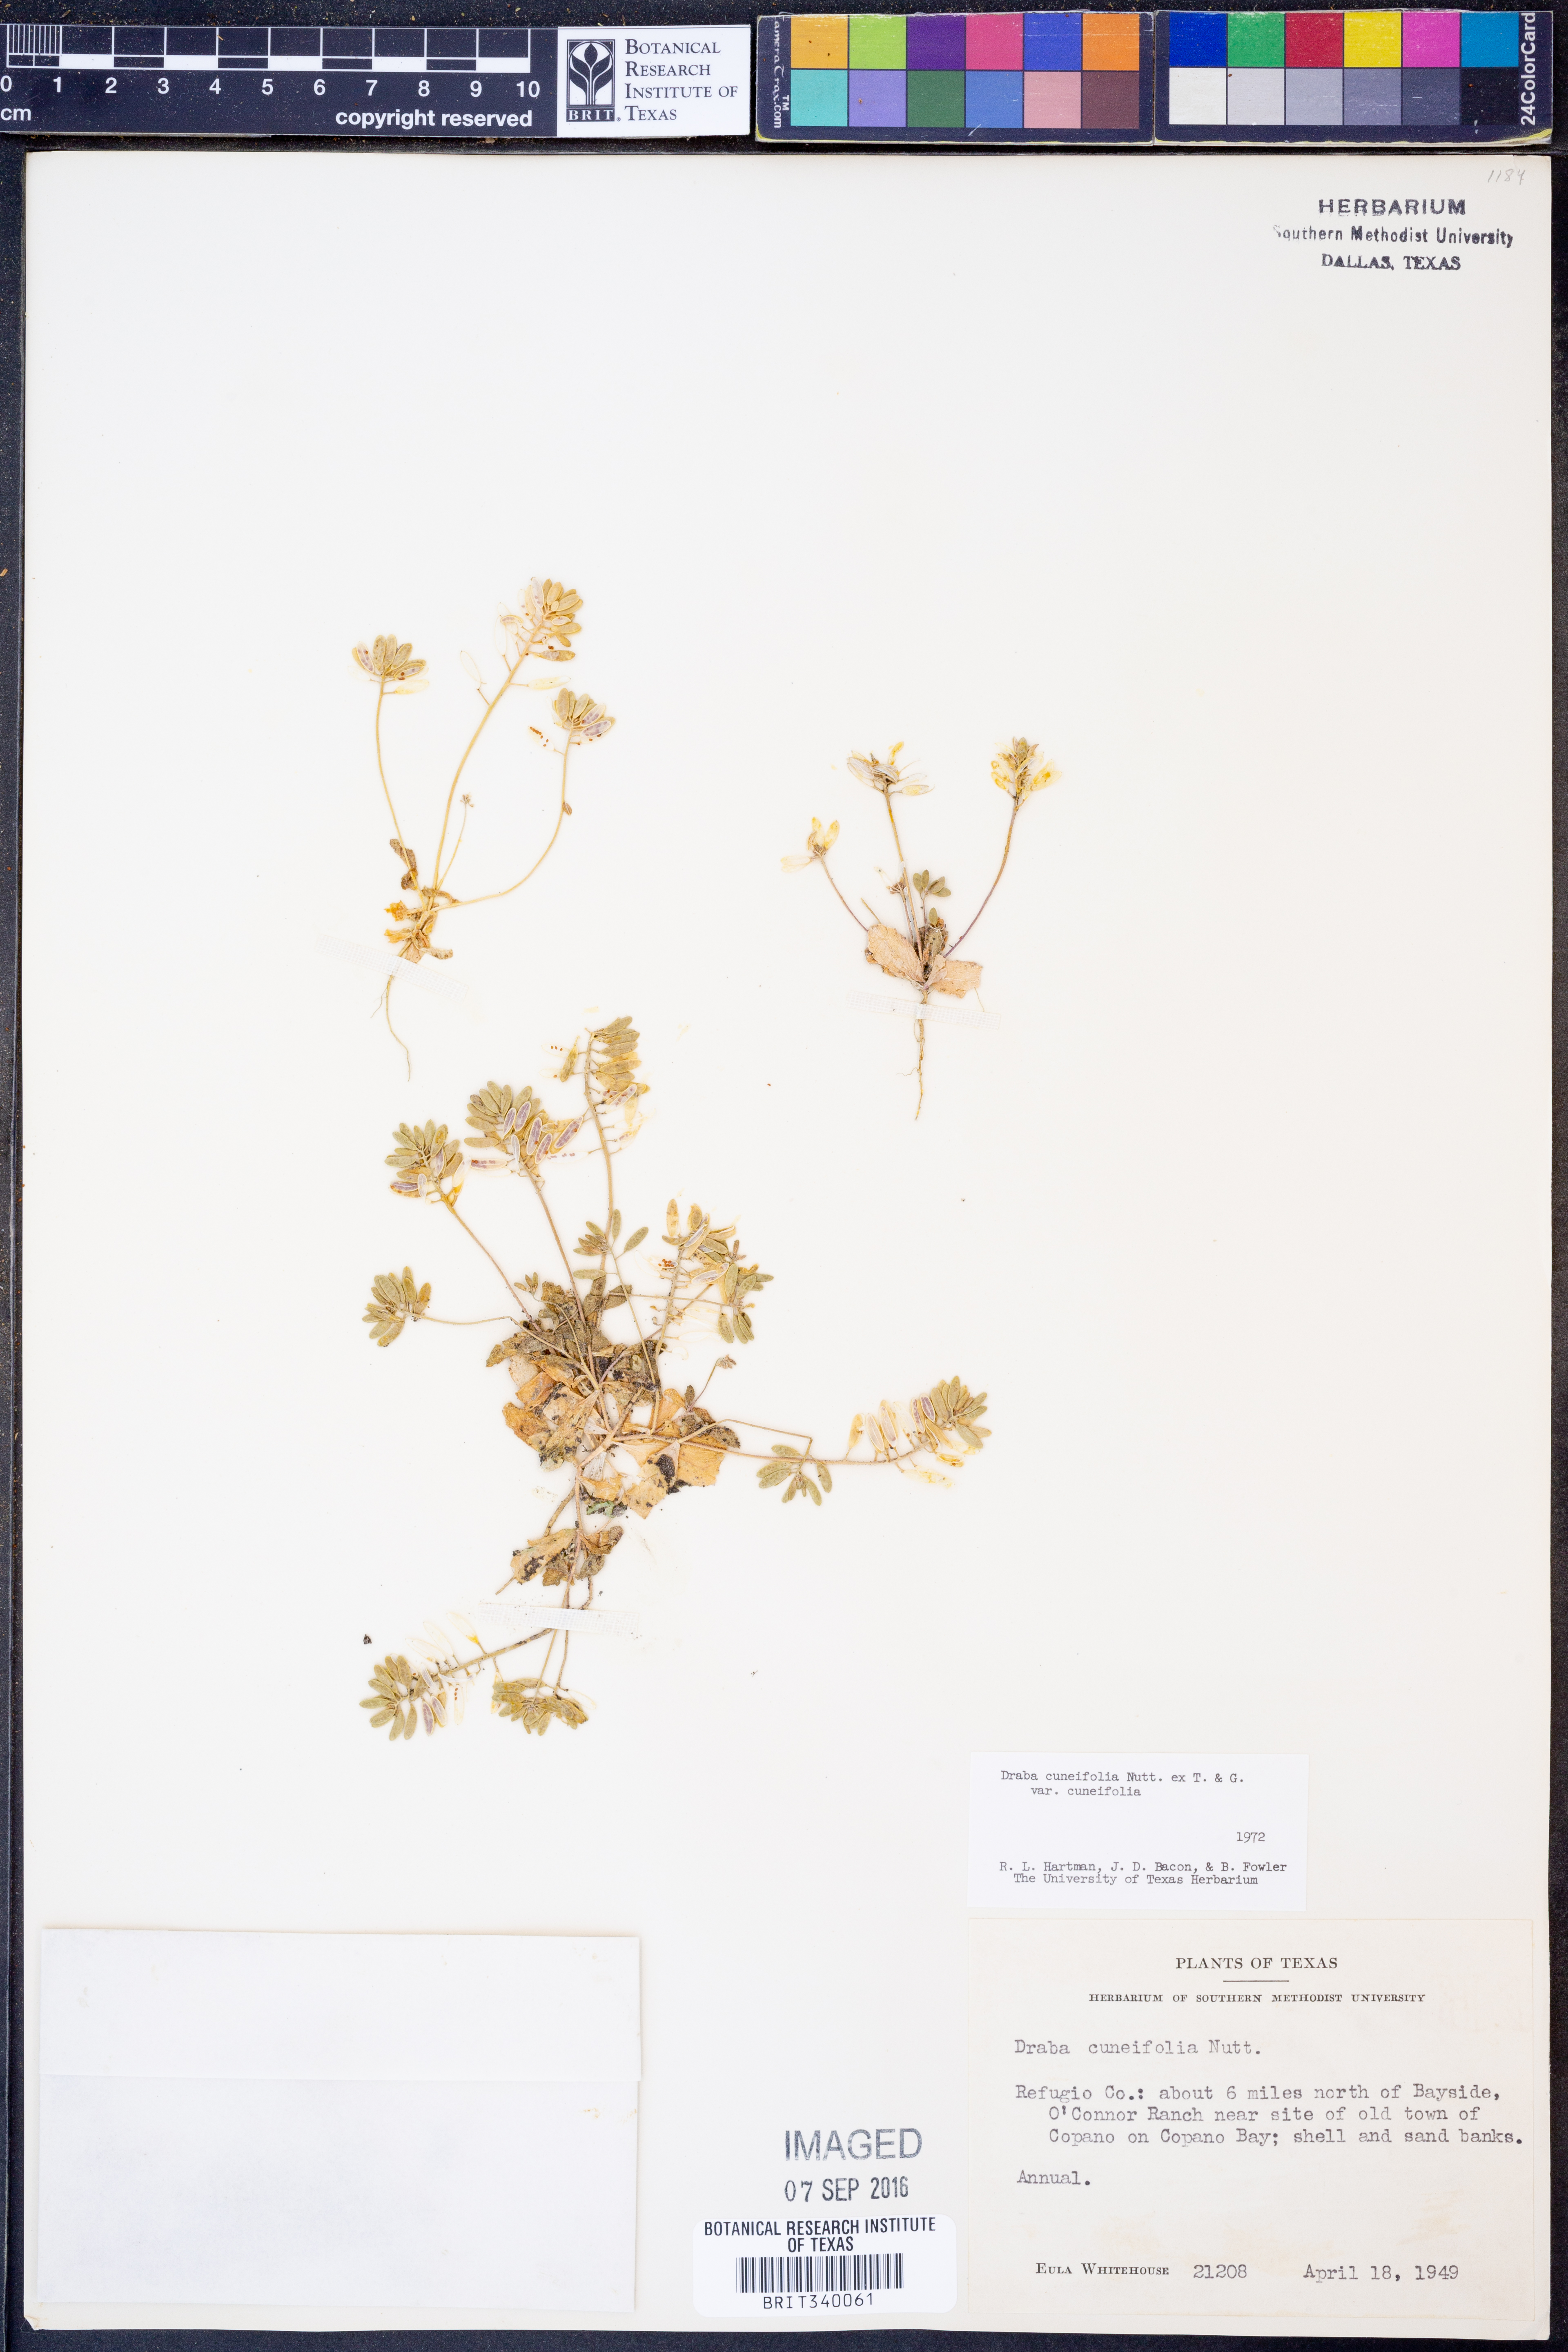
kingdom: Plantae
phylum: Tracheophyta
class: Magnoliopsida
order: Brassicales
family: Brassicaceae
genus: Tomostima
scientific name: Tomostima cuneifolia
